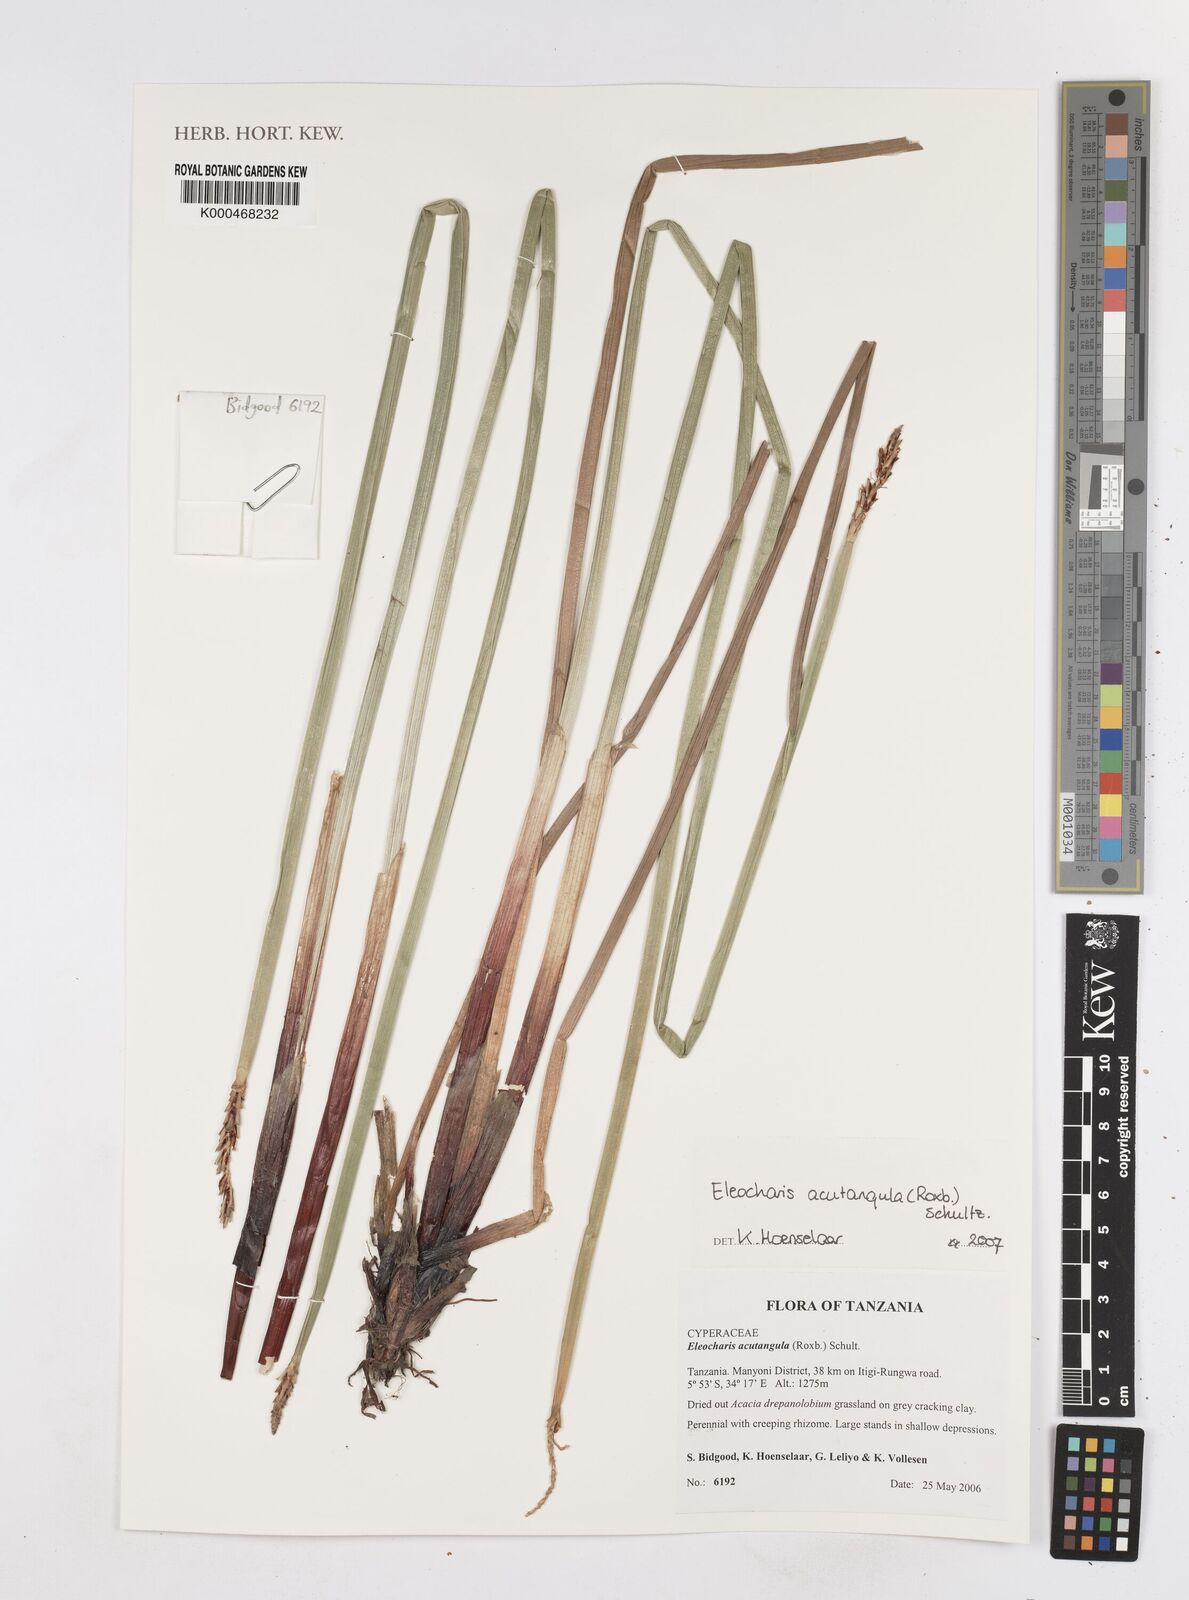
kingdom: Plantae
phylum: Tracheophyta
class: Liliopsida
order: Poales
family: Cyperaceae
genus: Eleocharis
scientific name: Eleocharis acutangula
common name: Acute spikerush
